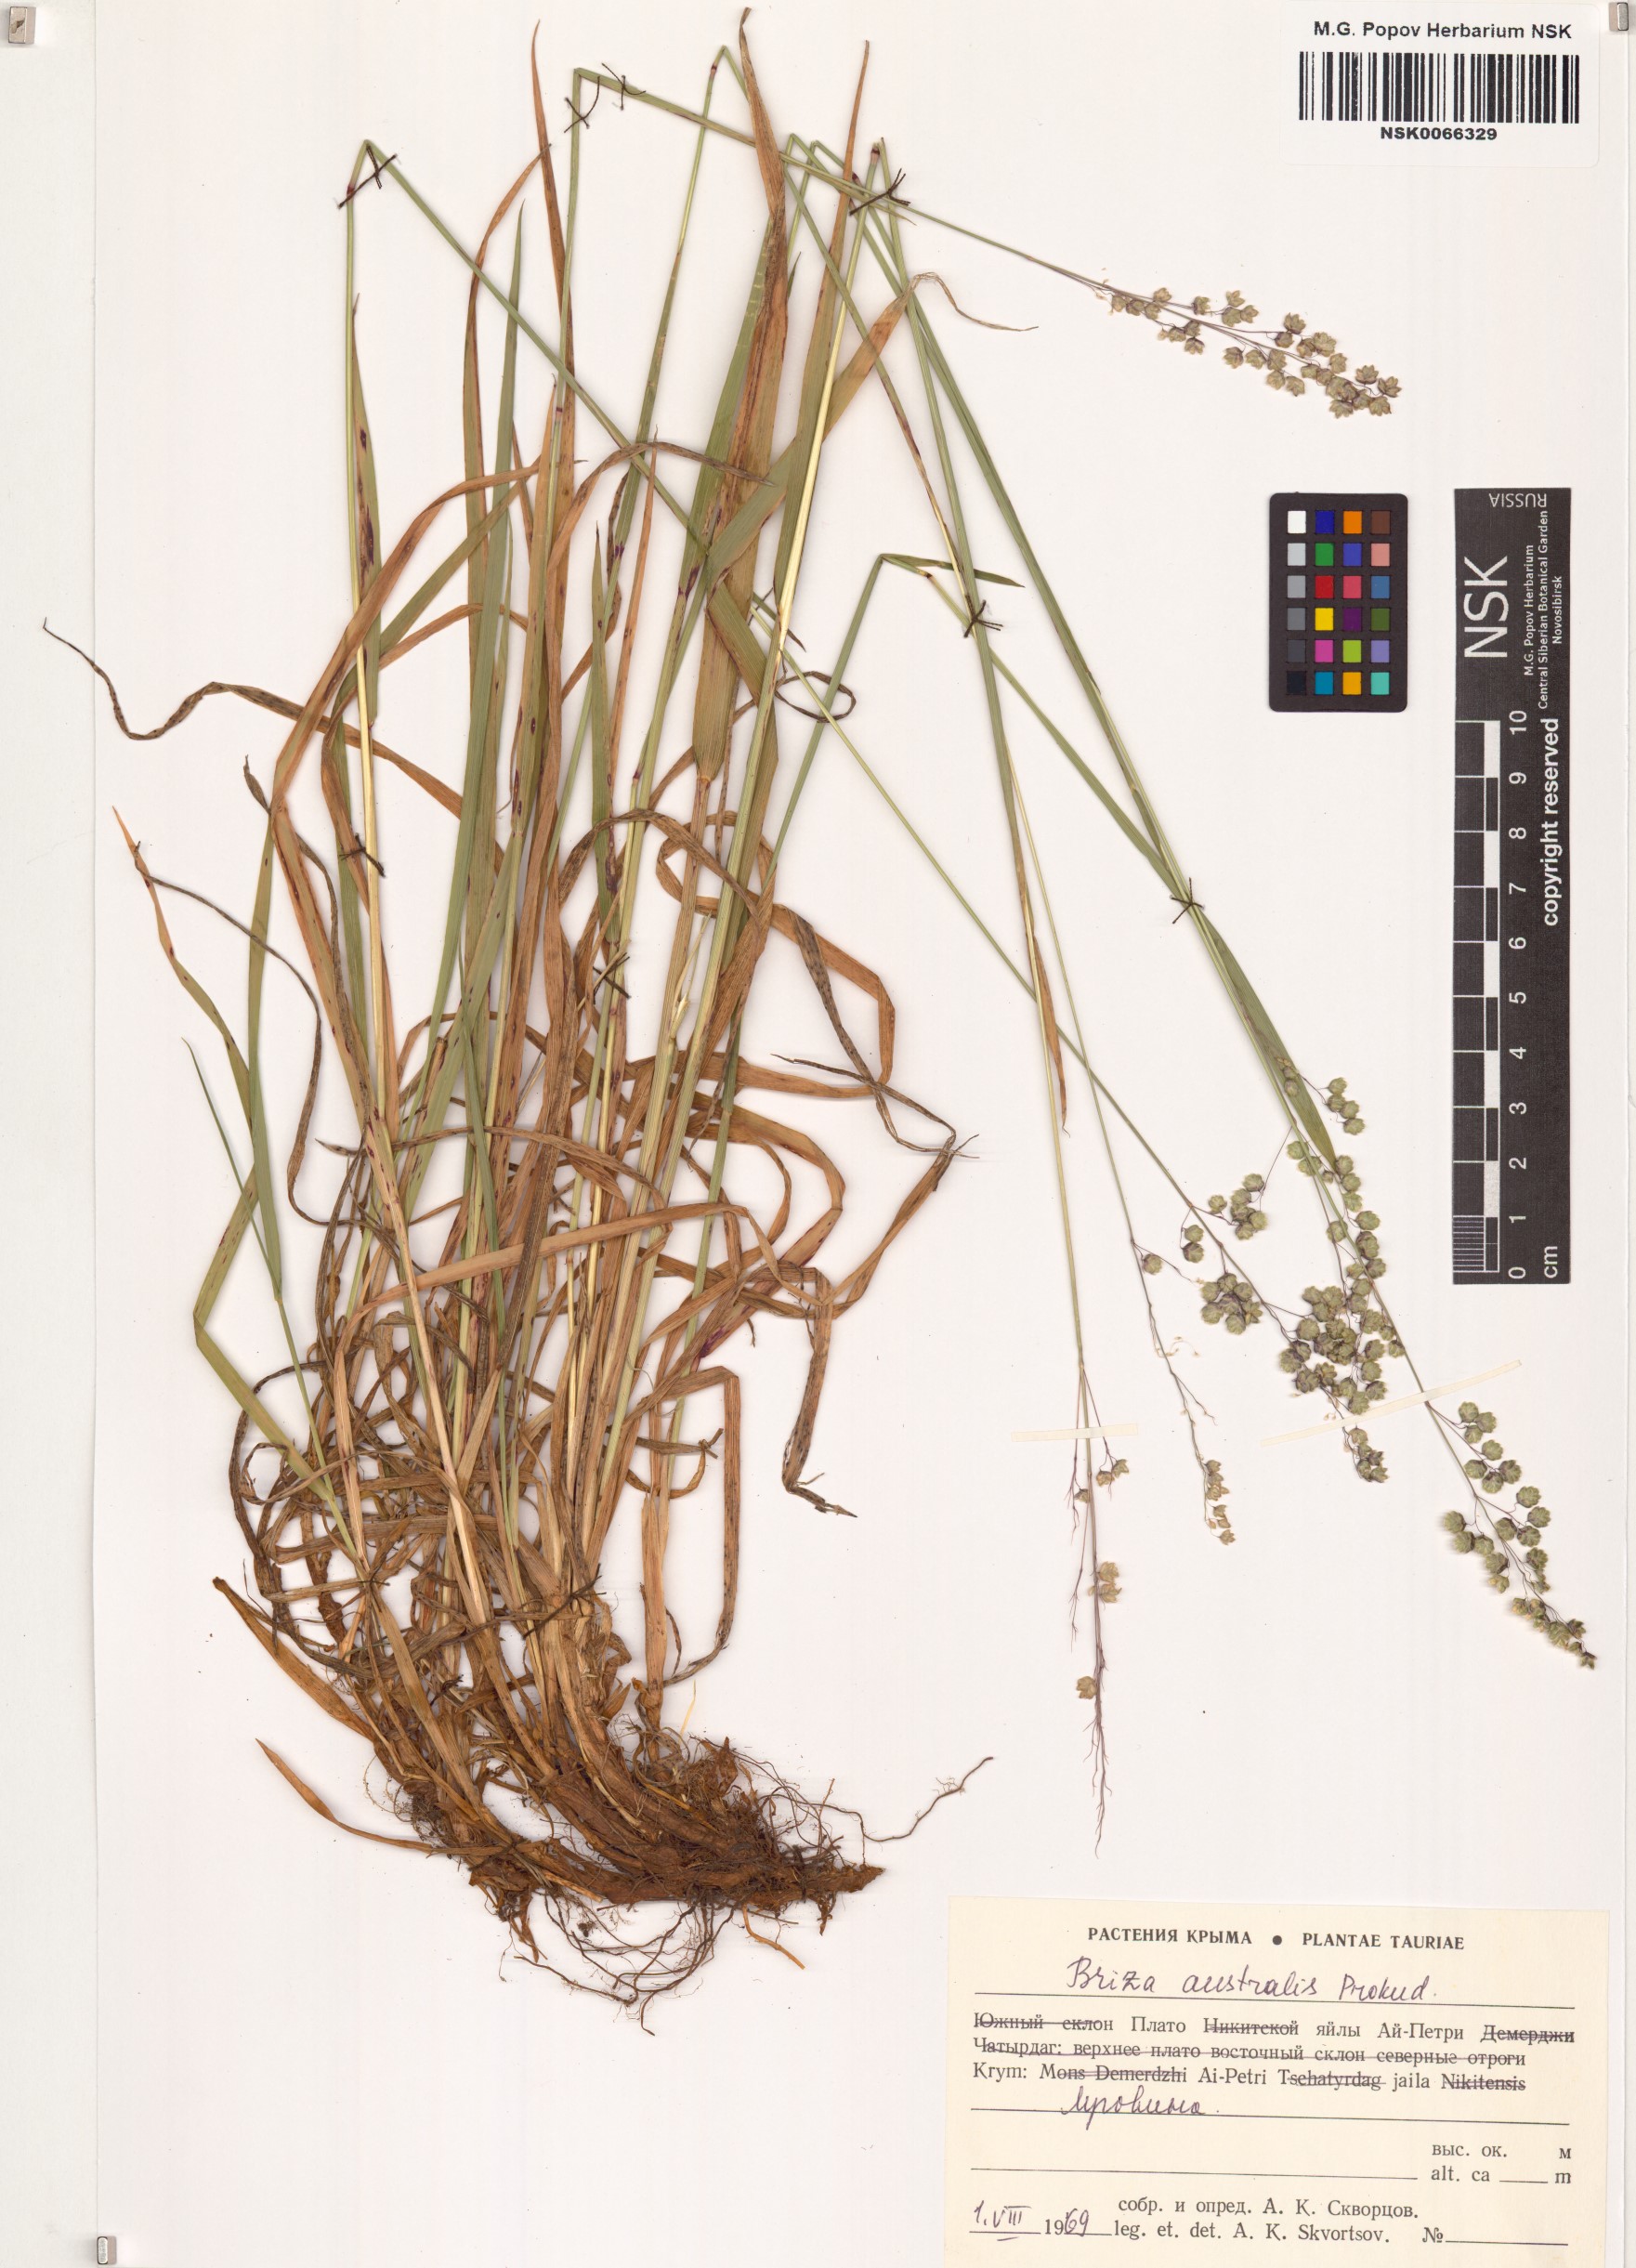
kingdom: Plantae
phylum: Tracheophyta
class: Liliopsida
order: Poales
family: Poaceae
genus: Briza
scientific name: Briza media
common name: Quaking grass
